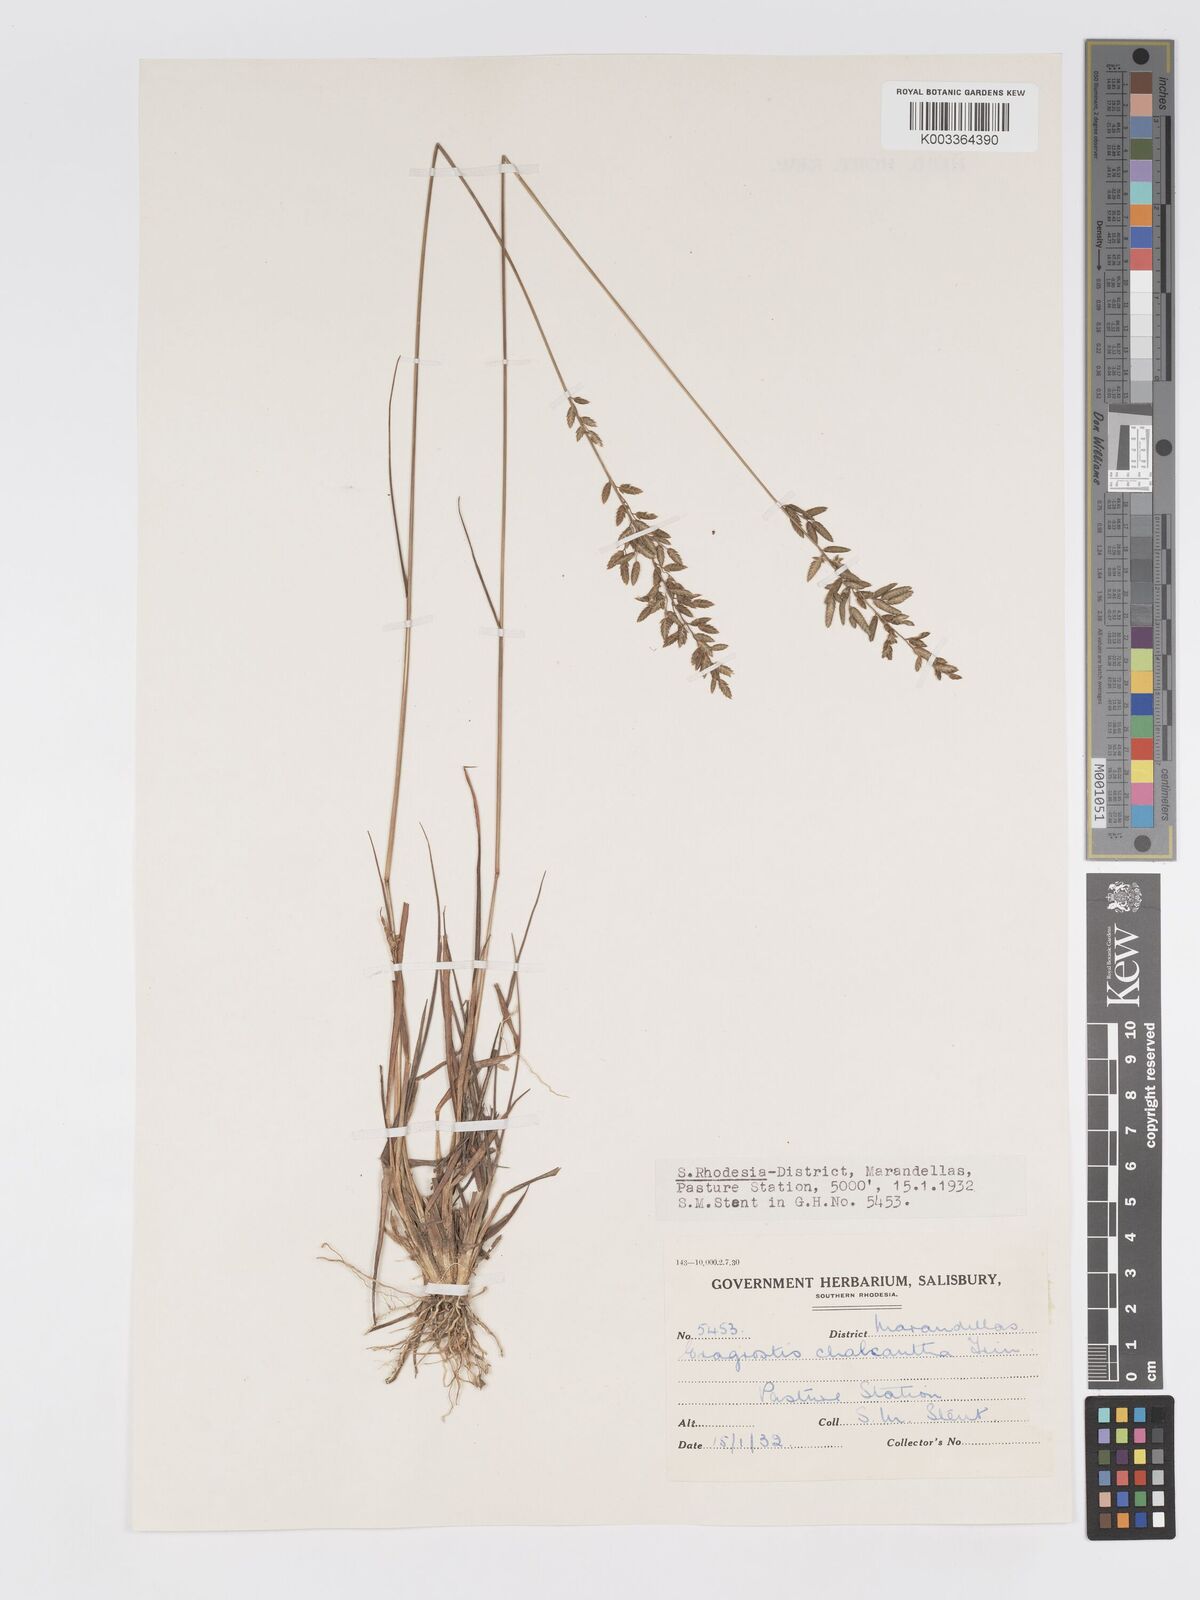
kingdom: Plantae
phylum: Tracheophyta
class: Liliopsida
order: Poales
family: Poaceae
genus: Eragrostis
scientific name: Eragrostis racemosa
